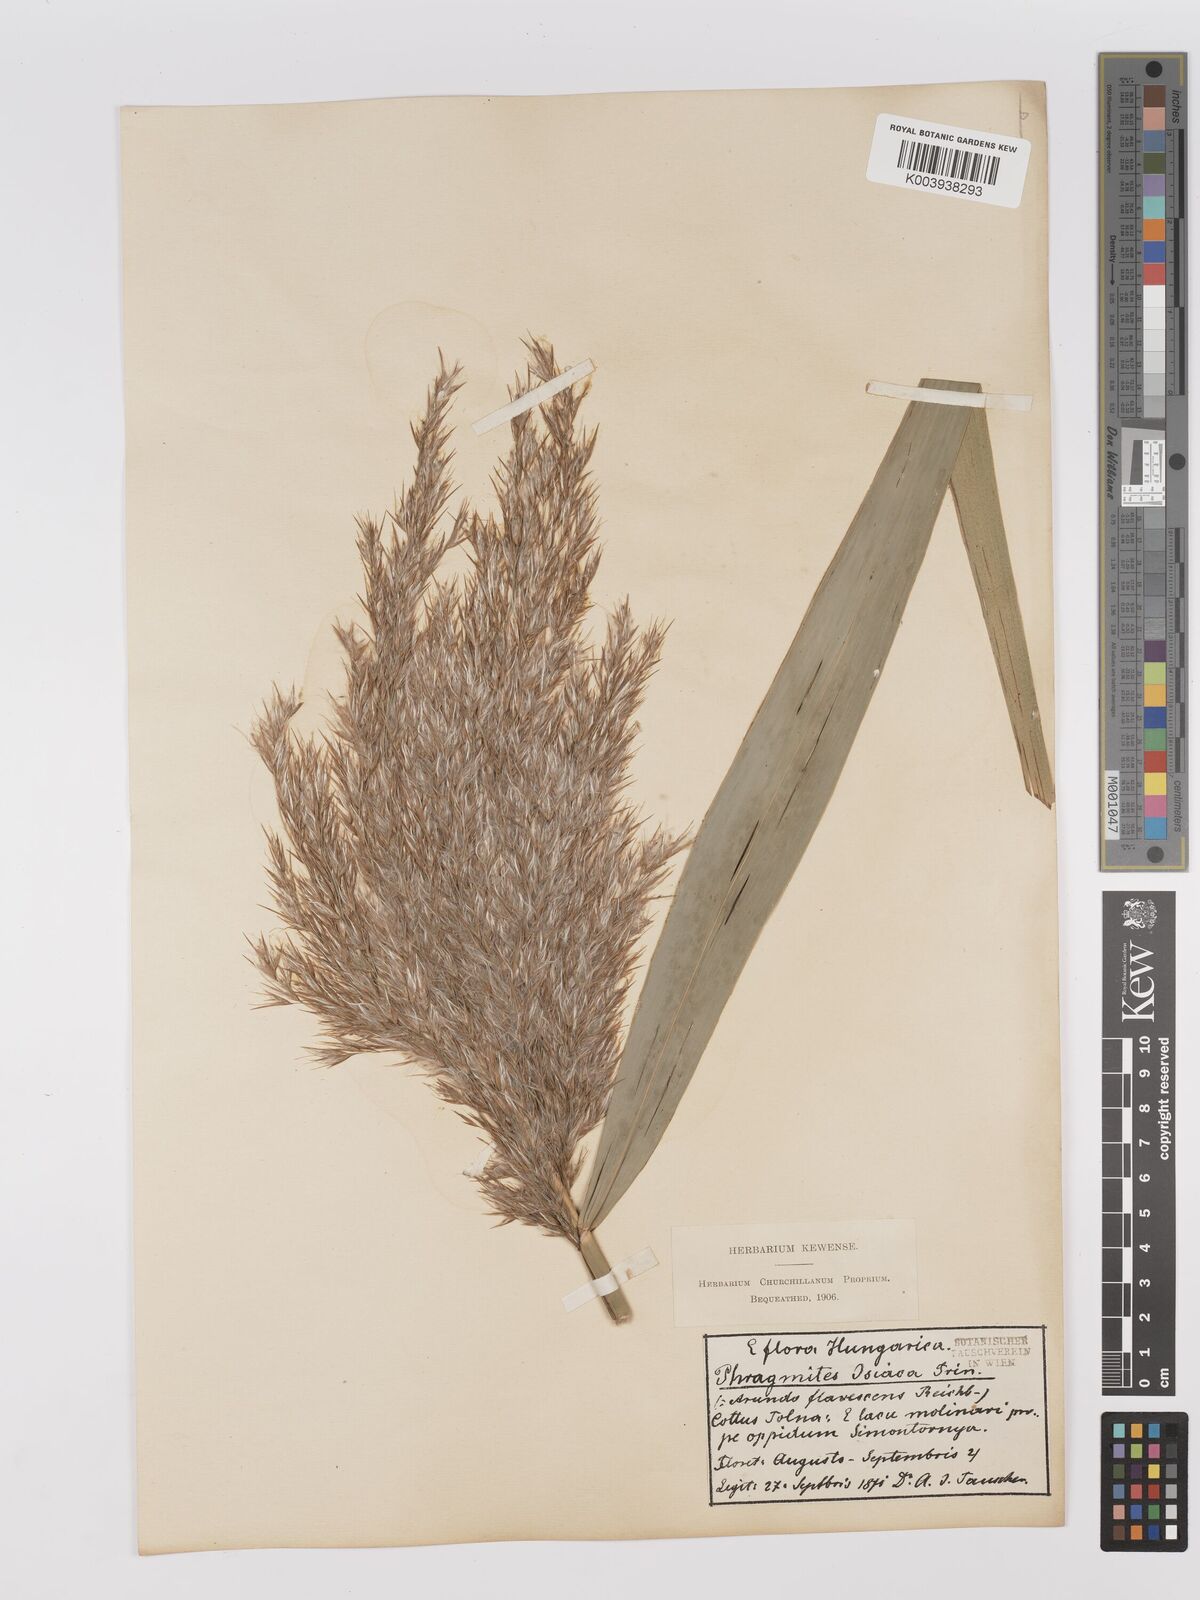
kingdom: Plantae
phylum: Tracheophyta
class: Liliopsida
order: Poales
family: Poaceae
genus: Phragmites
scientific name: Phragmites australis
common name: Common reed
